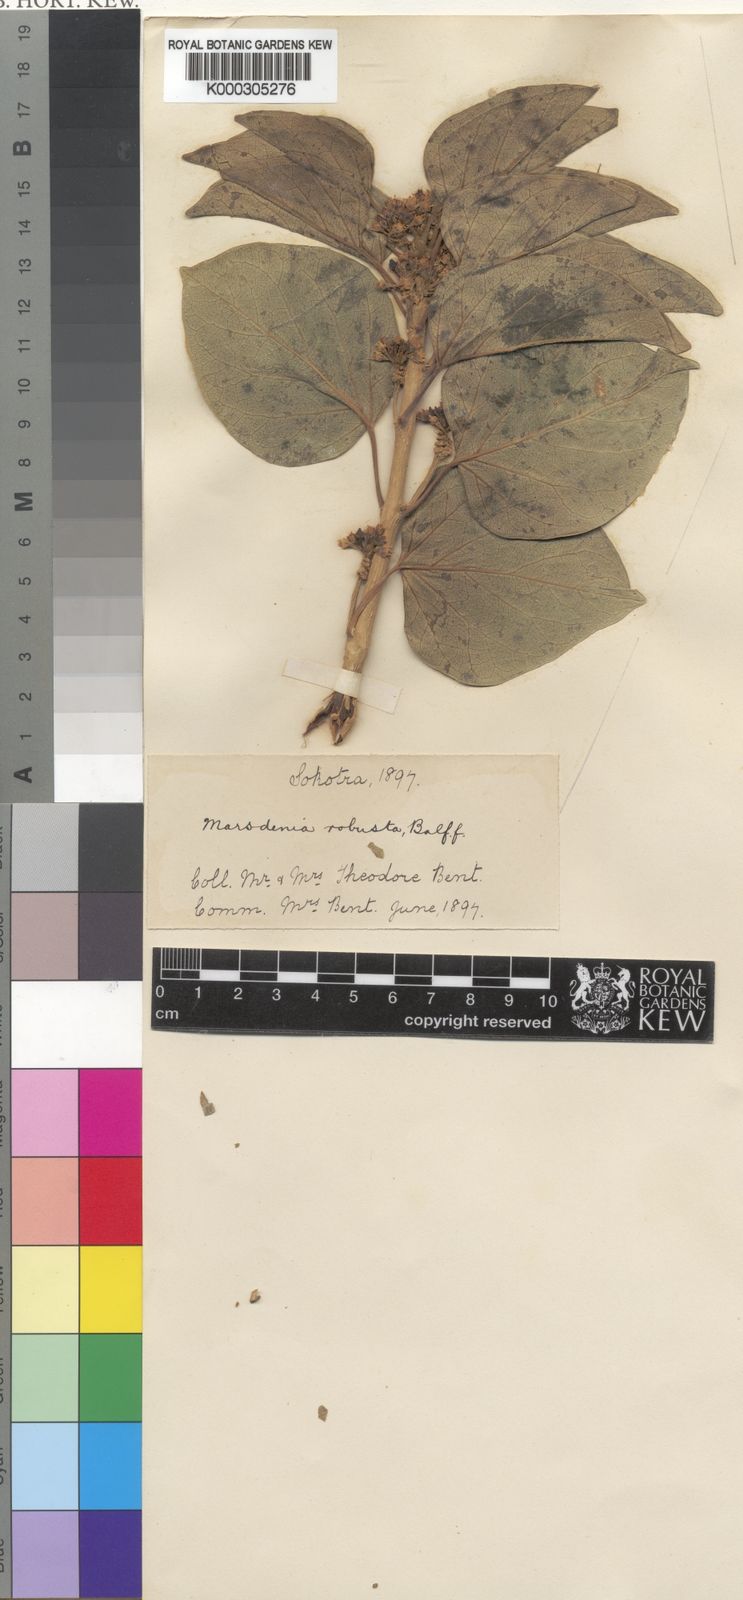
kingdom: Plantae
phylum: Tracheophyta
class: Magnoliopsida
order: Gentianales
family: Apocynaceae
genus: Stephanotis
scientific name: Stephanotis arabica
